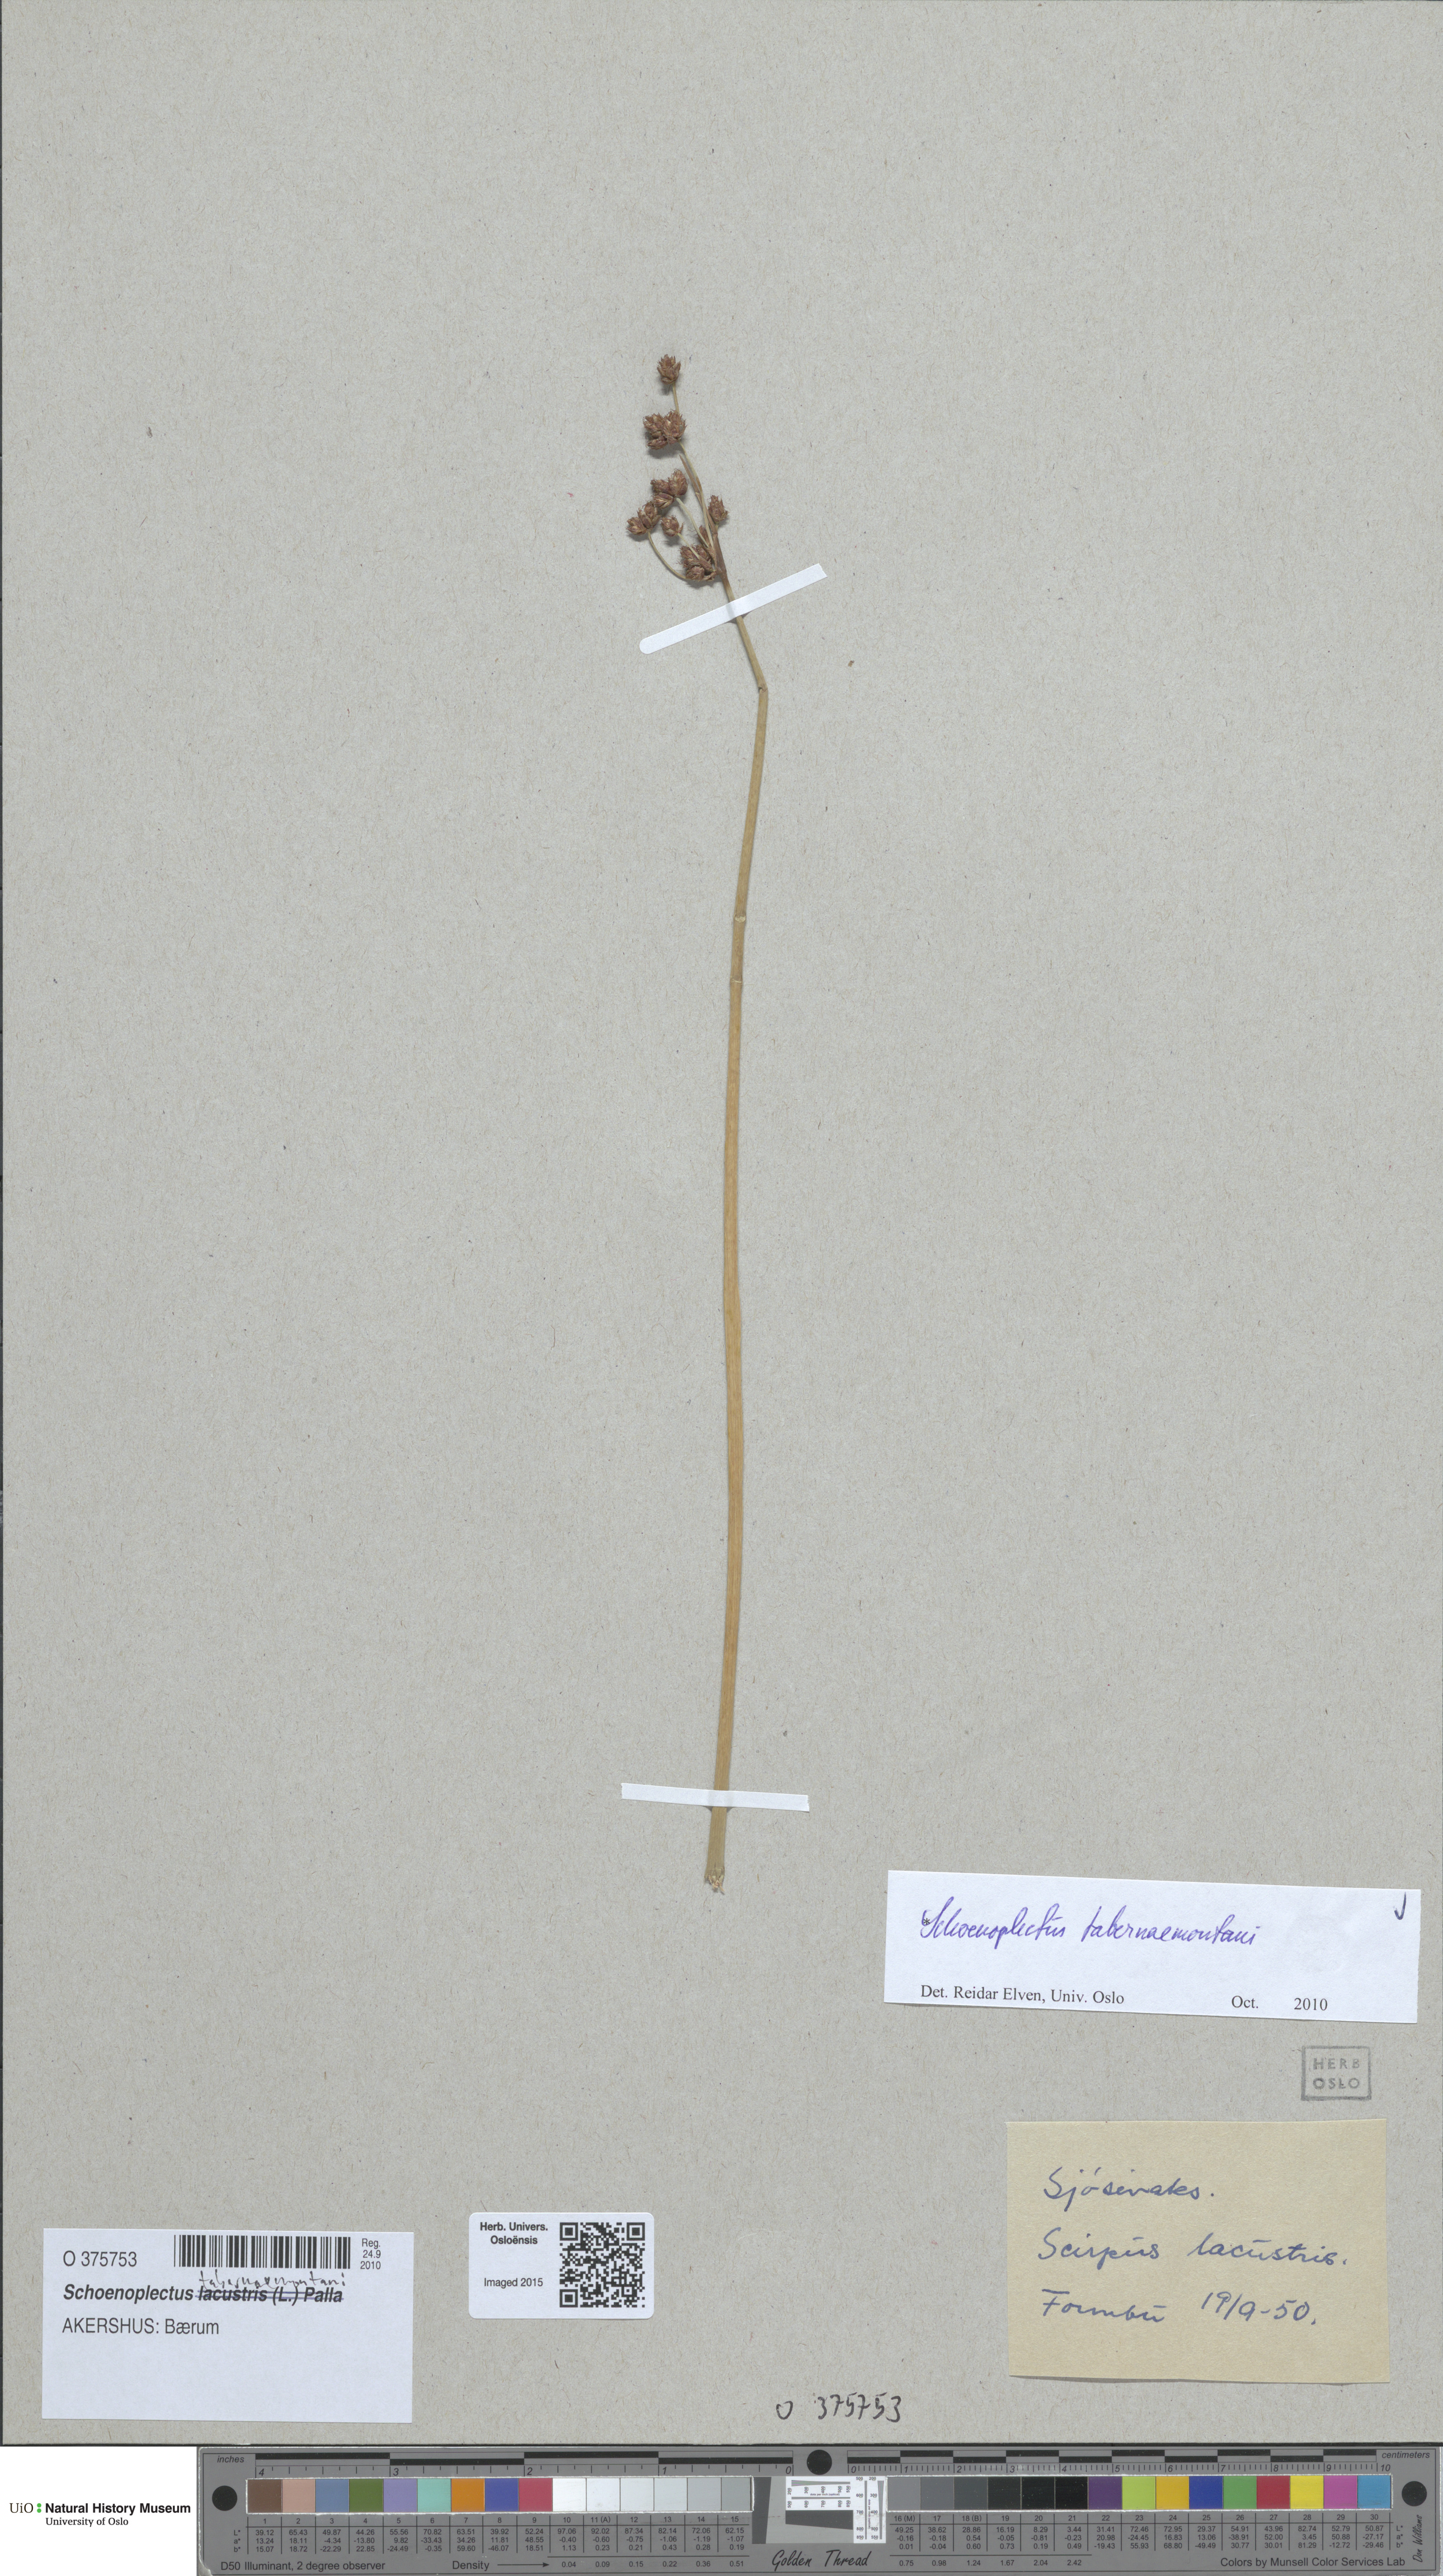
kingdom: Plantae
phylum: Tracheophyta
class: Liliopsida
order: Poales
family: Cyperaceae
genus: Schoenoplectus
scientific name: Schoenoplectus tabernaemontani
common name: Grey club-rush
